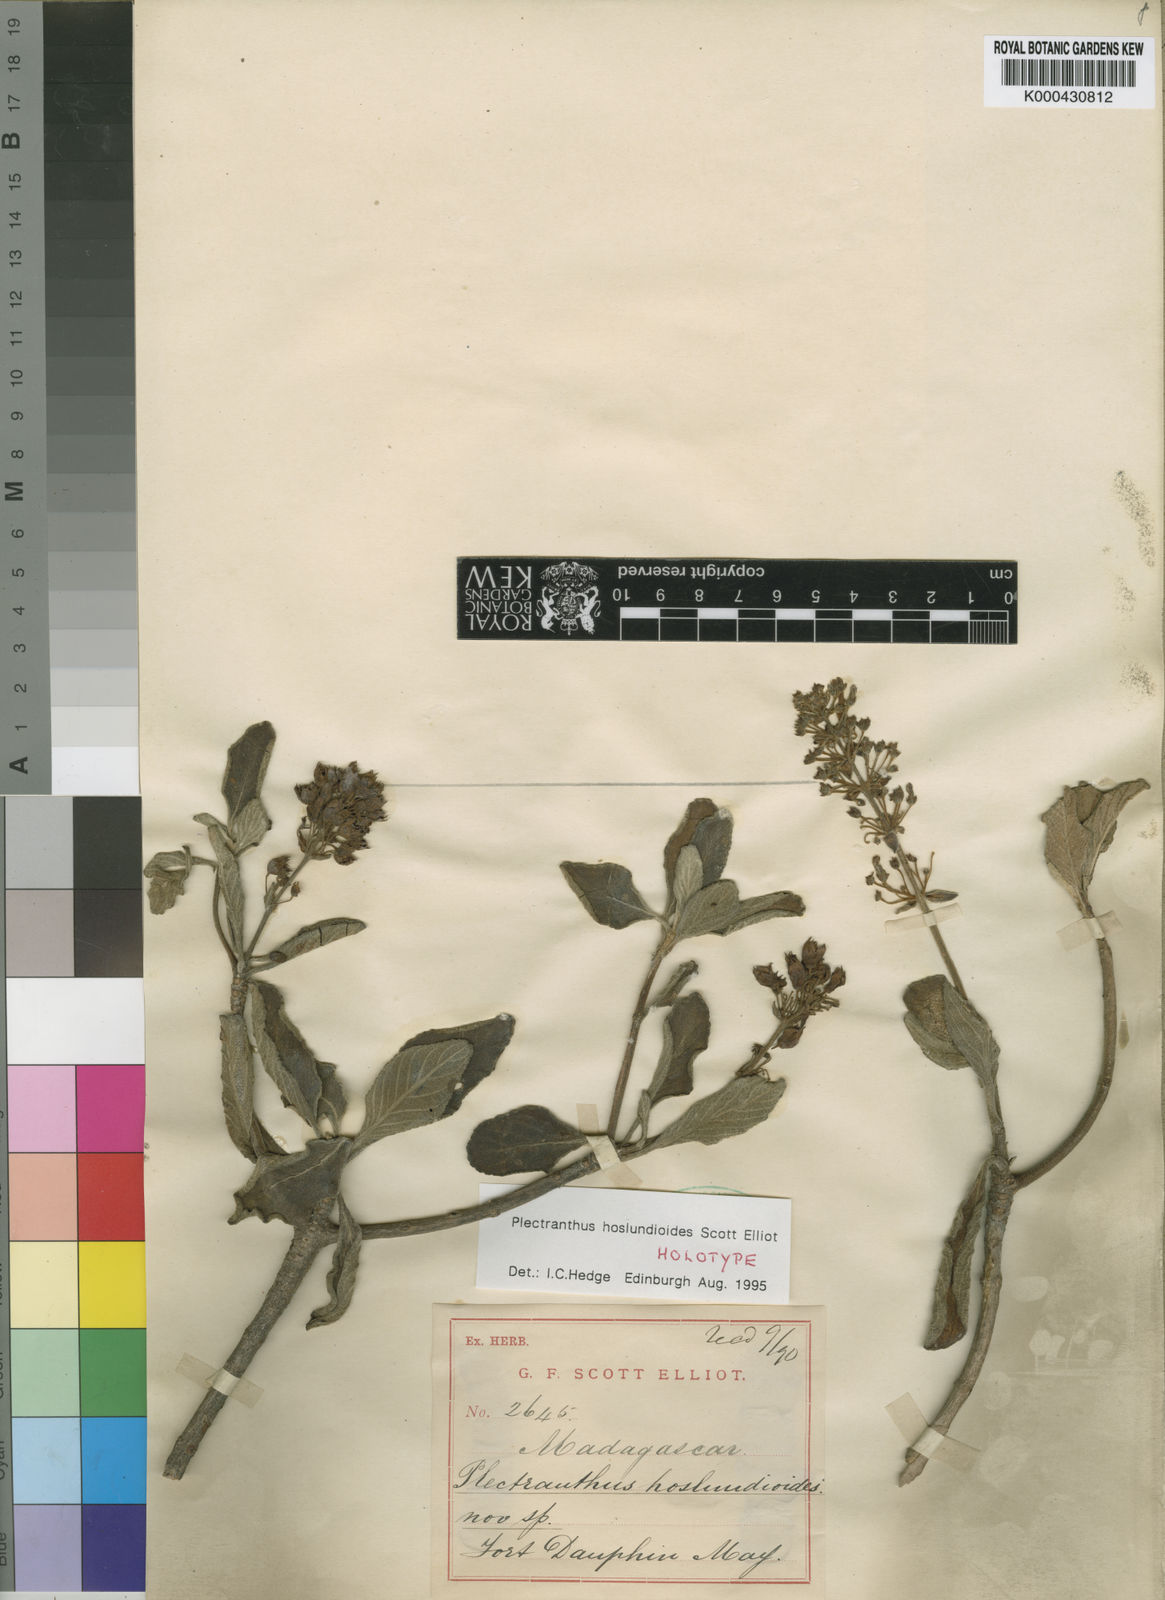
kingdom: Plantae
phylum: Tracheophyta
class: Magnoliopsida
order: Lamiales
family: Lamiaceae
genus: Plectranthus
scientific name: Plectranthus hoslundioides
